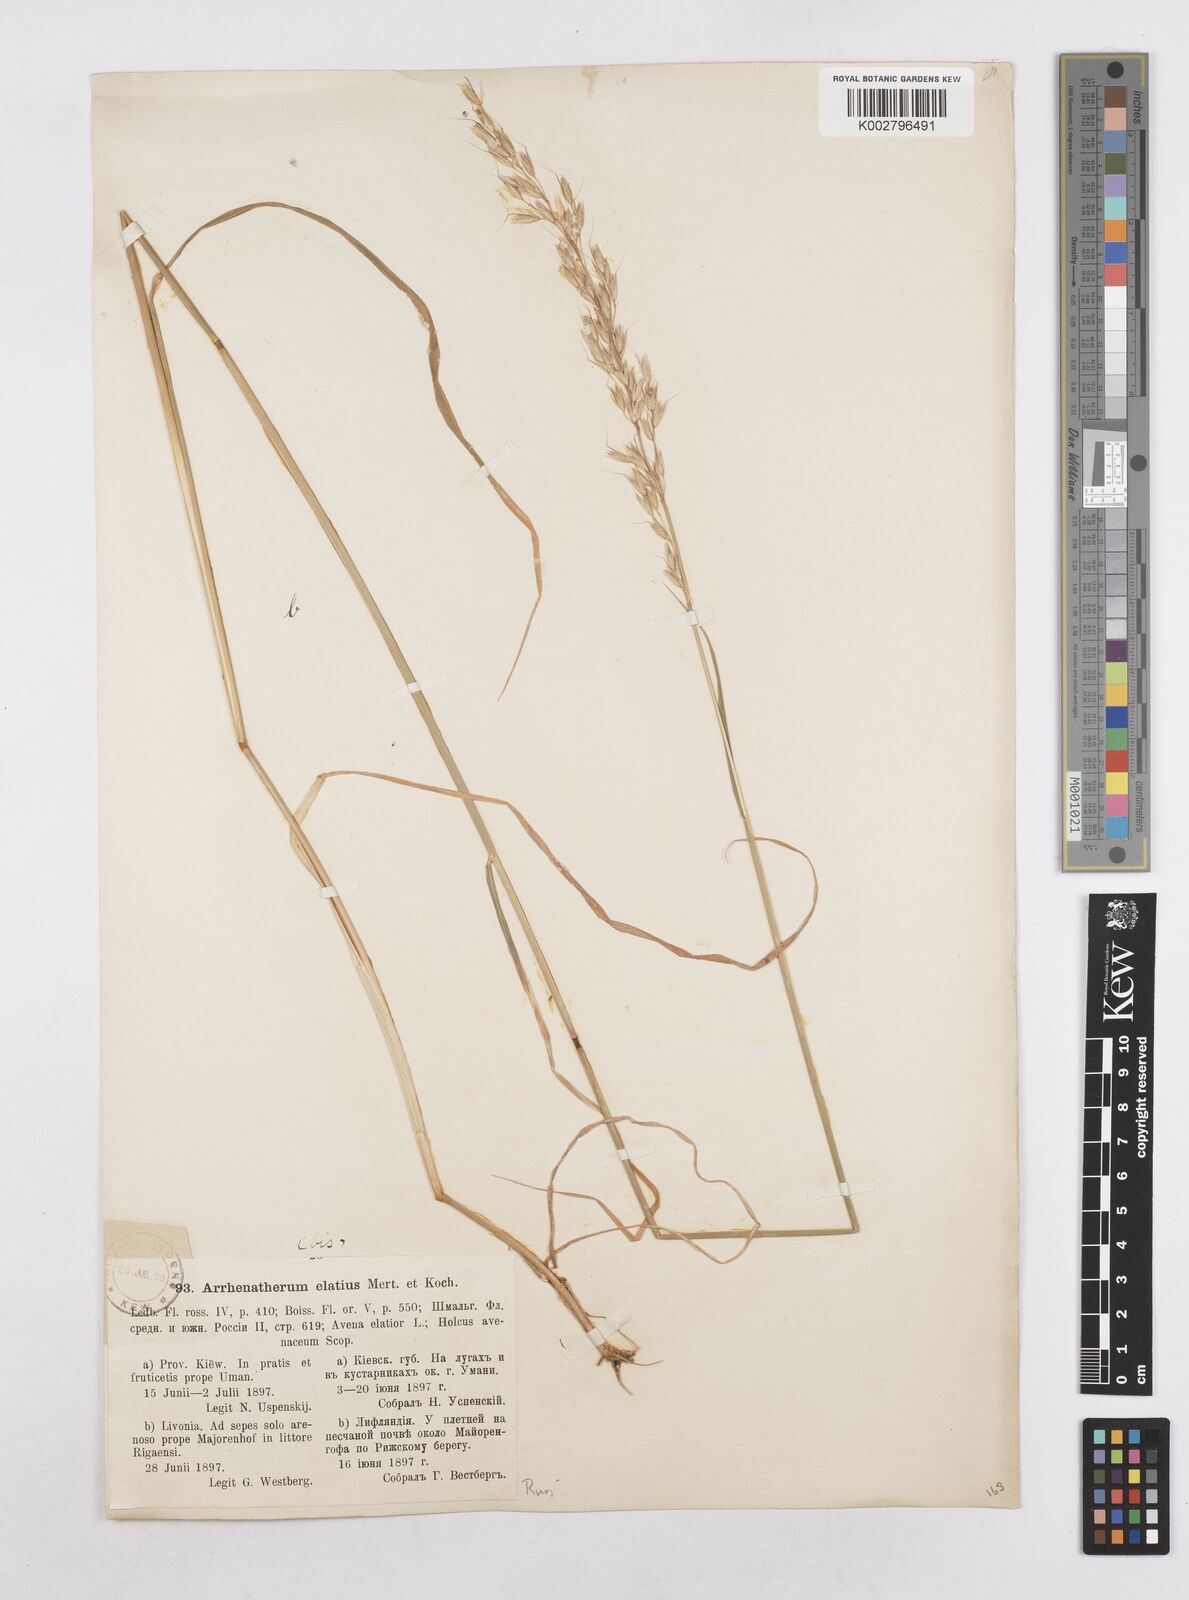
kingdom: Plantae
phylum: Tracheophyta
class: Liliopsida
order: Poales
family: Poaceae
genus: Arrhenatherum
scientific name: Arrhenatherum elatius
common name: Tall oatgrass
